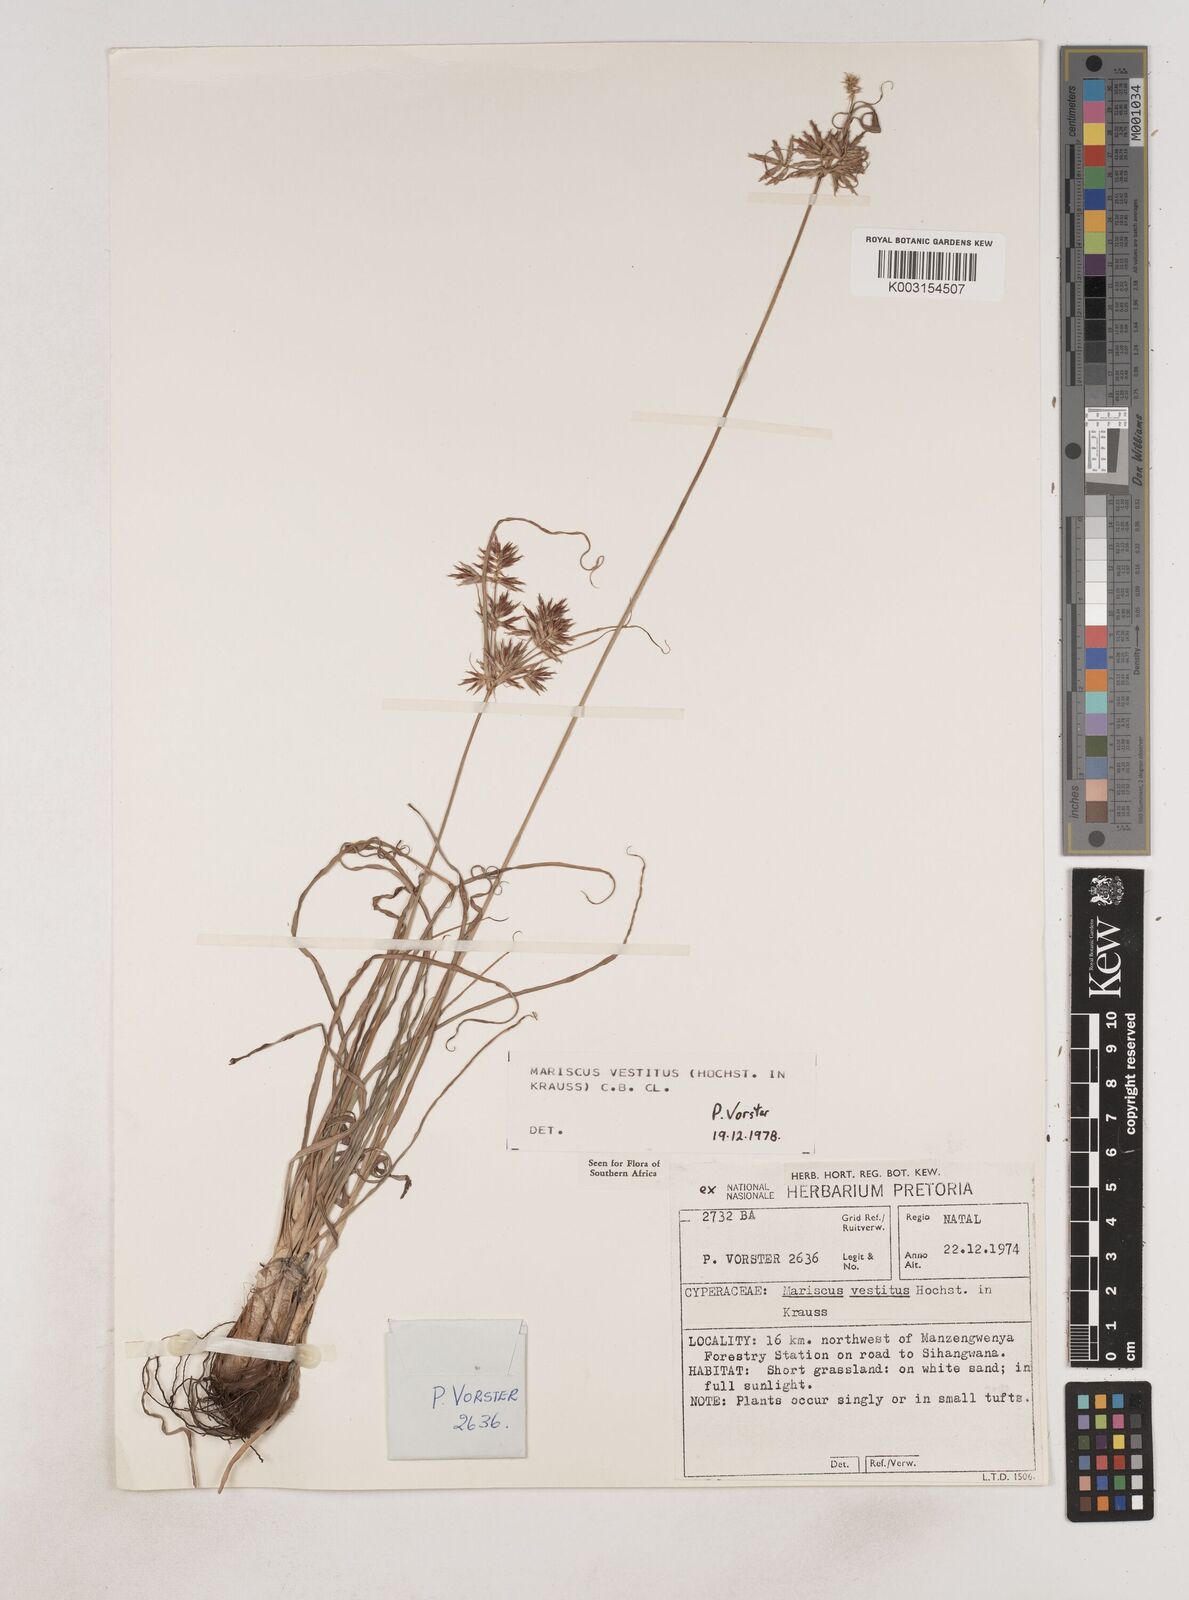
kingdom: Plantae
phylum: Tracheophyta
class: Liliopsida
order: Poales
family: Cyperaceae
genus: Cyperus
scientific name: Cyperus vestitus
